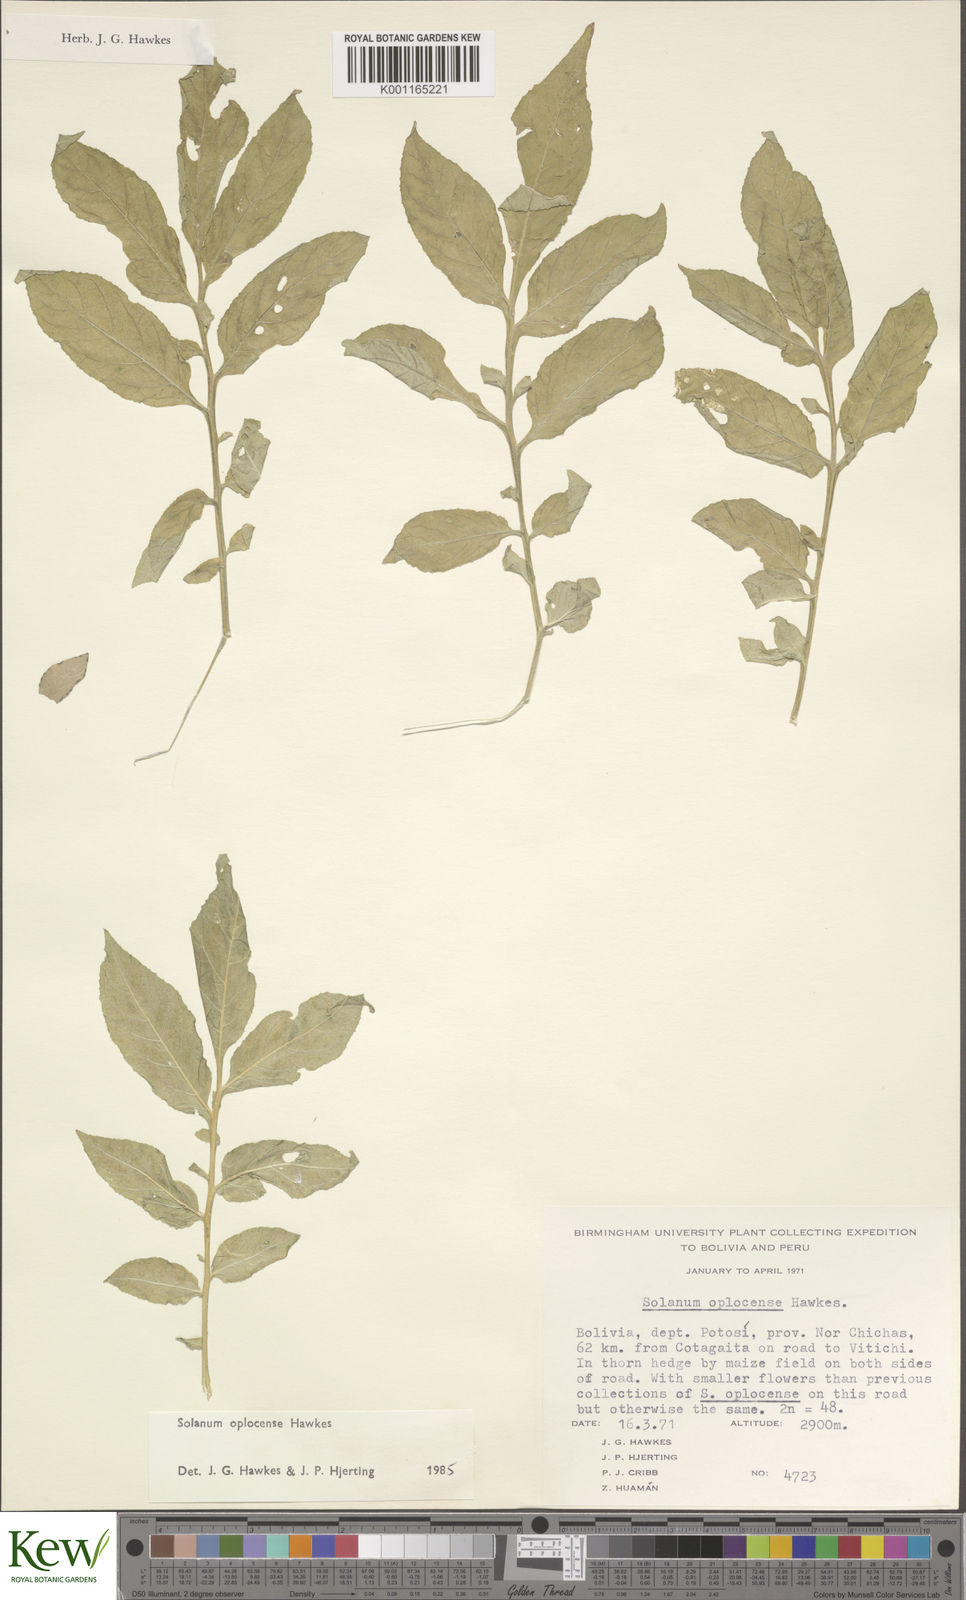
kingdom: Plantae
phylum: Tracheophyta
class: Magnoliopsida
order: Solanales
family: Solanaceae
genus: Solanum
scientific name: Solanum brevicaule
